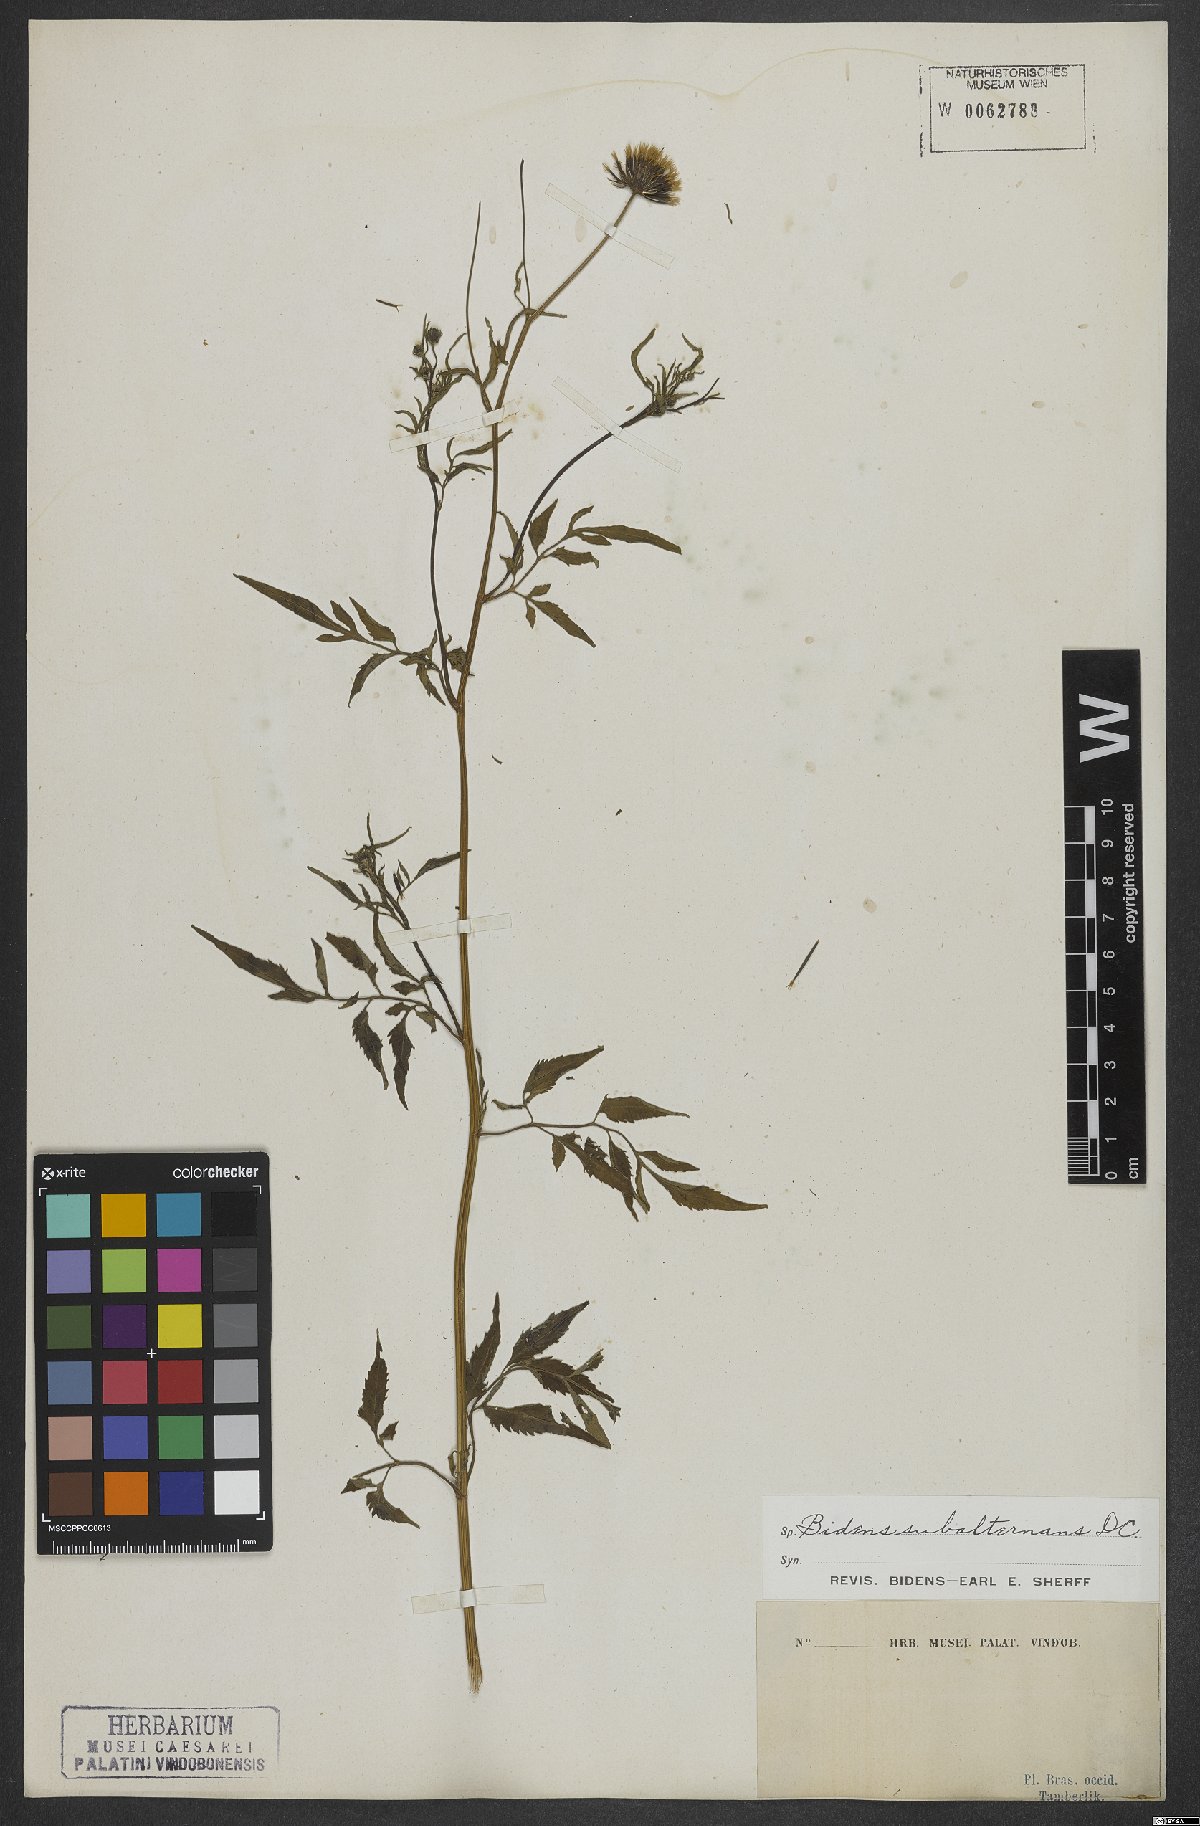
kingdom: Plantae
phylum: Tracheophyta
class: Magnoliopsida
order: Asterales
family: Asteraceae
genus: Bidens
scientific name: Bidens subalternans
